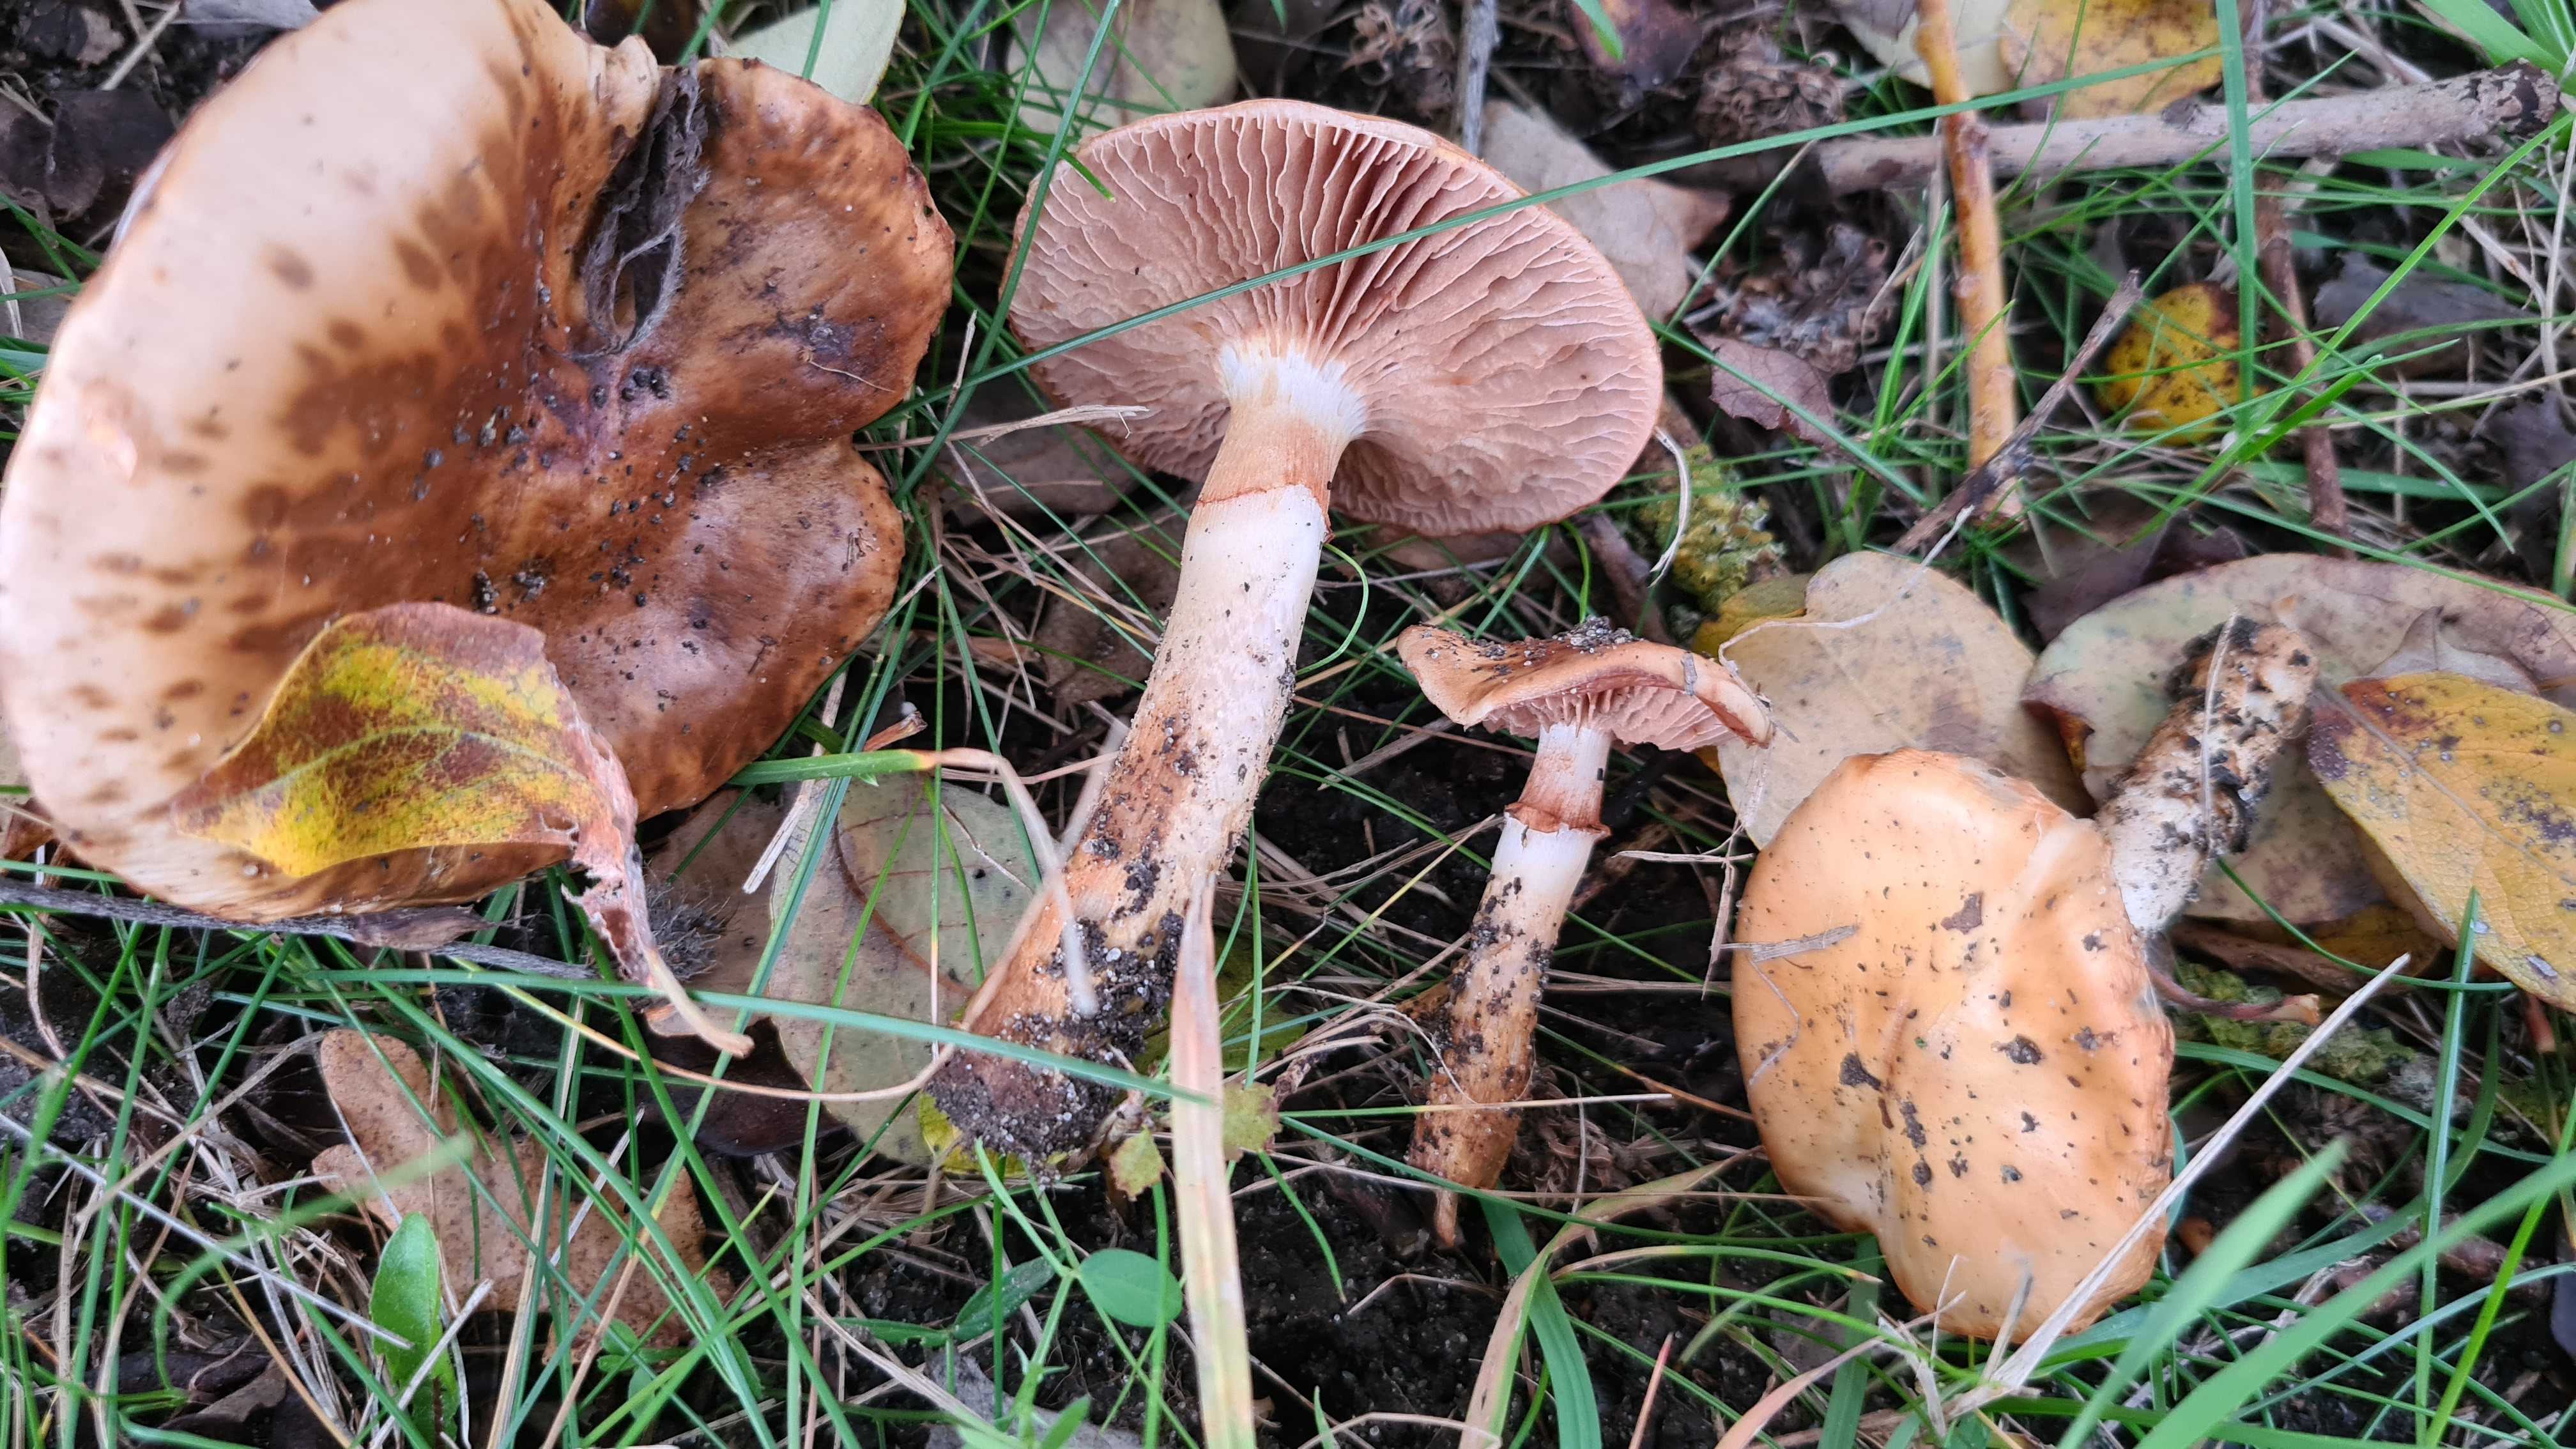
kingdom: Fungi
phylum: Basidiomycota
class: Agaricomycetes
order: Agaricales
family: Cortinariaceae
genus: Cortinarius
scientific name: Cortinarius trivialis
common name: Girdled webcap
